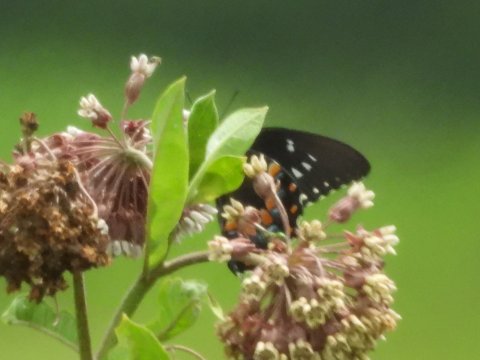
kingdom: Animalia
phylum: Arthropoda
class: Insecta
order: Lepidoptera
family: Papilionidae
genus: Pterourus
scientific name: Pterourus troilus
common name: Spicebush Swallowtail
